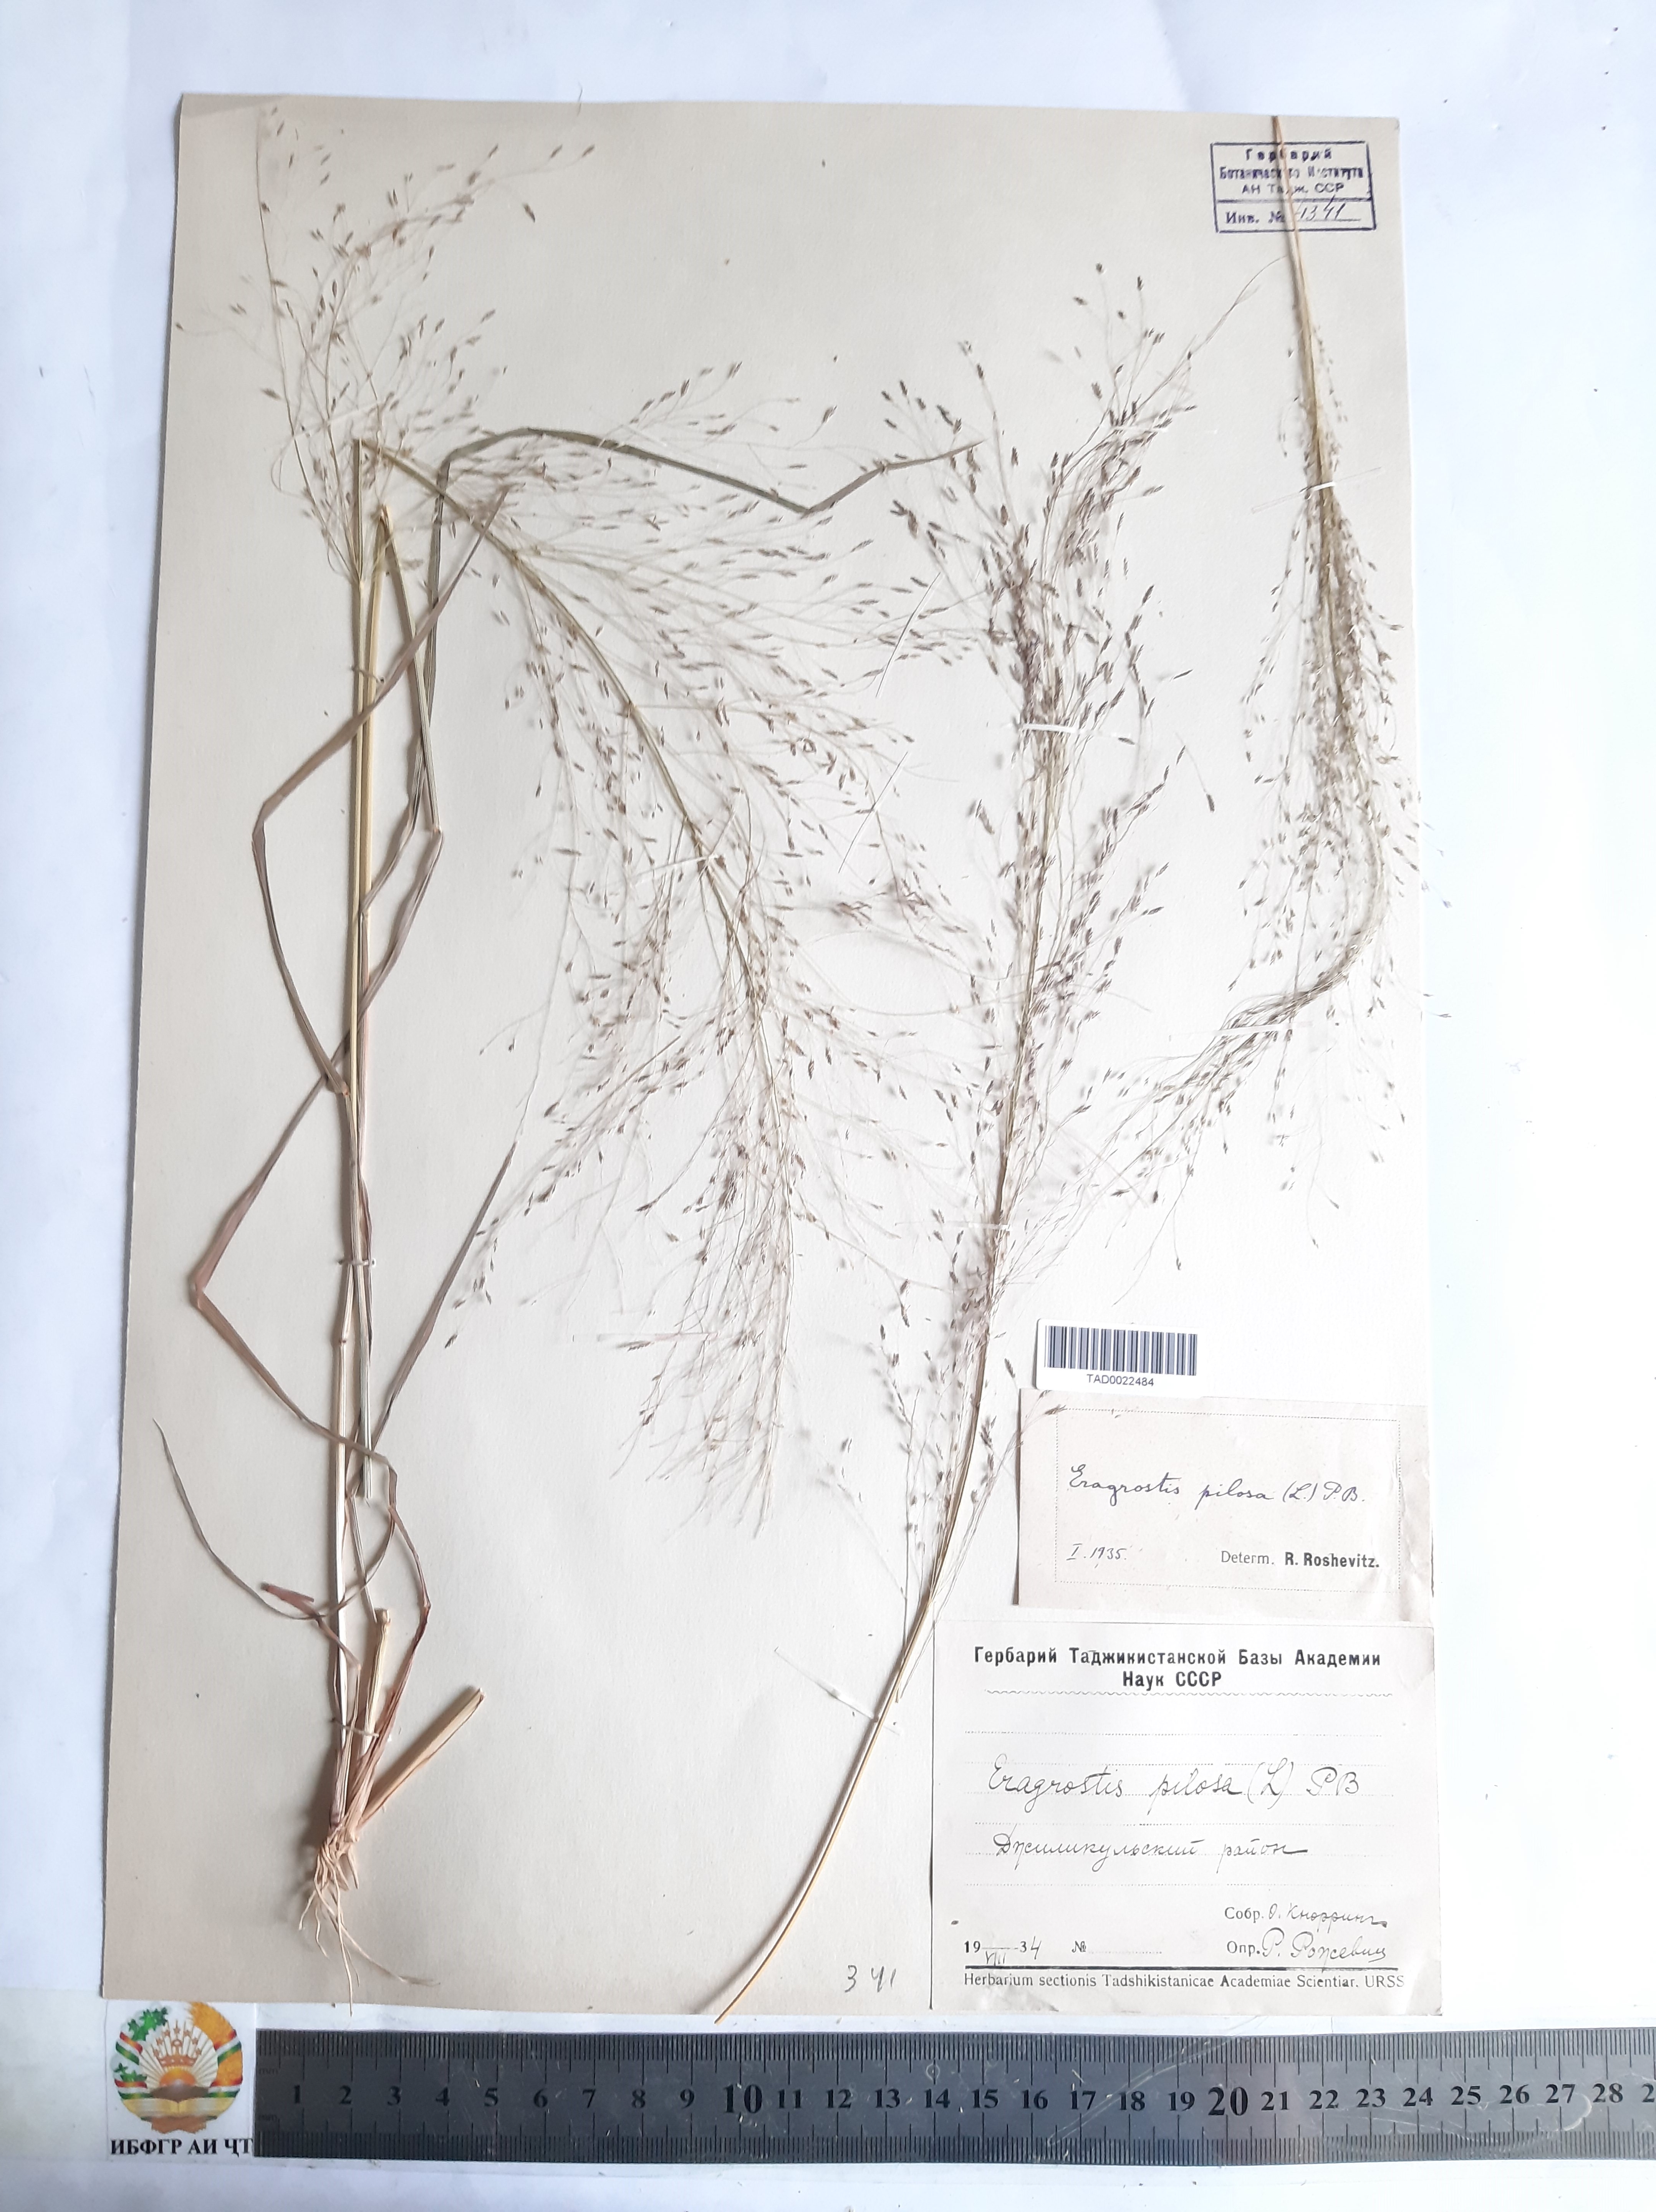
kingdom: Plantae
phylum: Tracheophyta
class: Liliopsida
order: Poales
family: Poaceae
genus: Eragrostis
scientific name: Eragrostis pilosa
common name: Indian lovegrass
